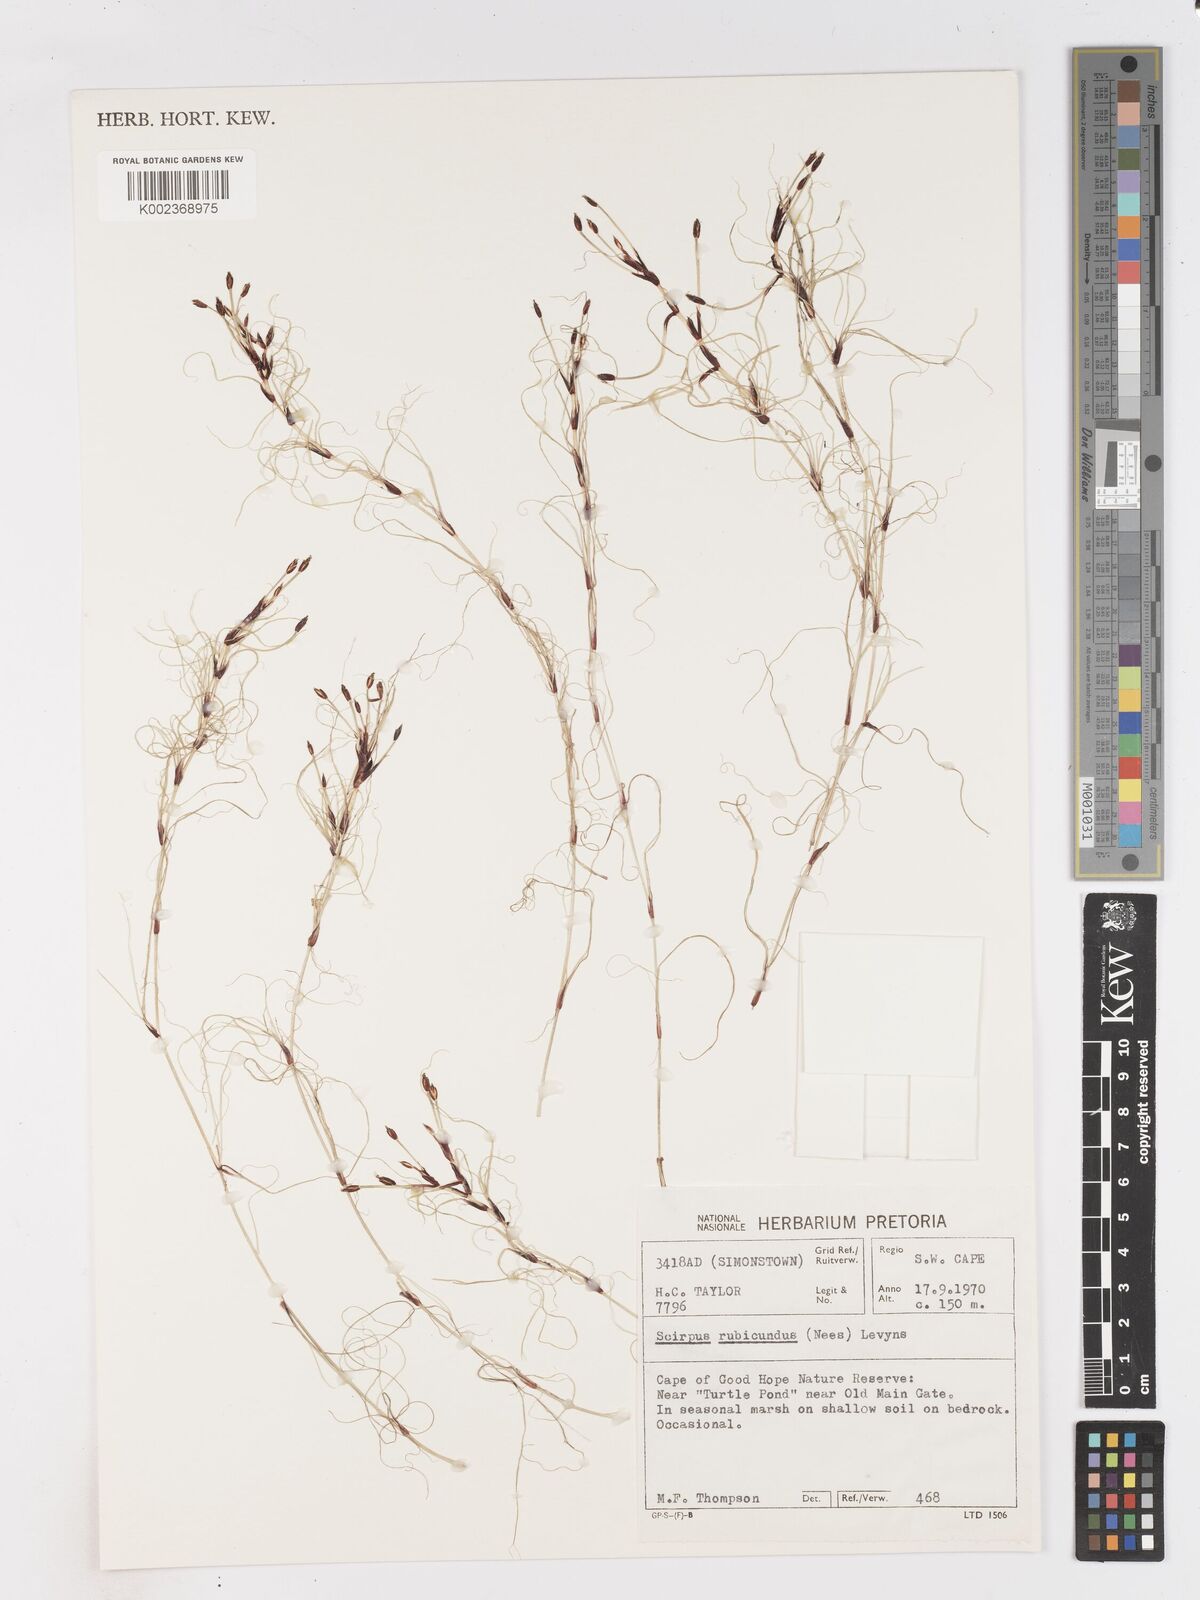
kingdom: Plantae
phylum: Tracheophyta
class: Liliopsida
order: Poales
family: Cyperaceae
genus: Isolepis
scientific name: Isolepis striata
